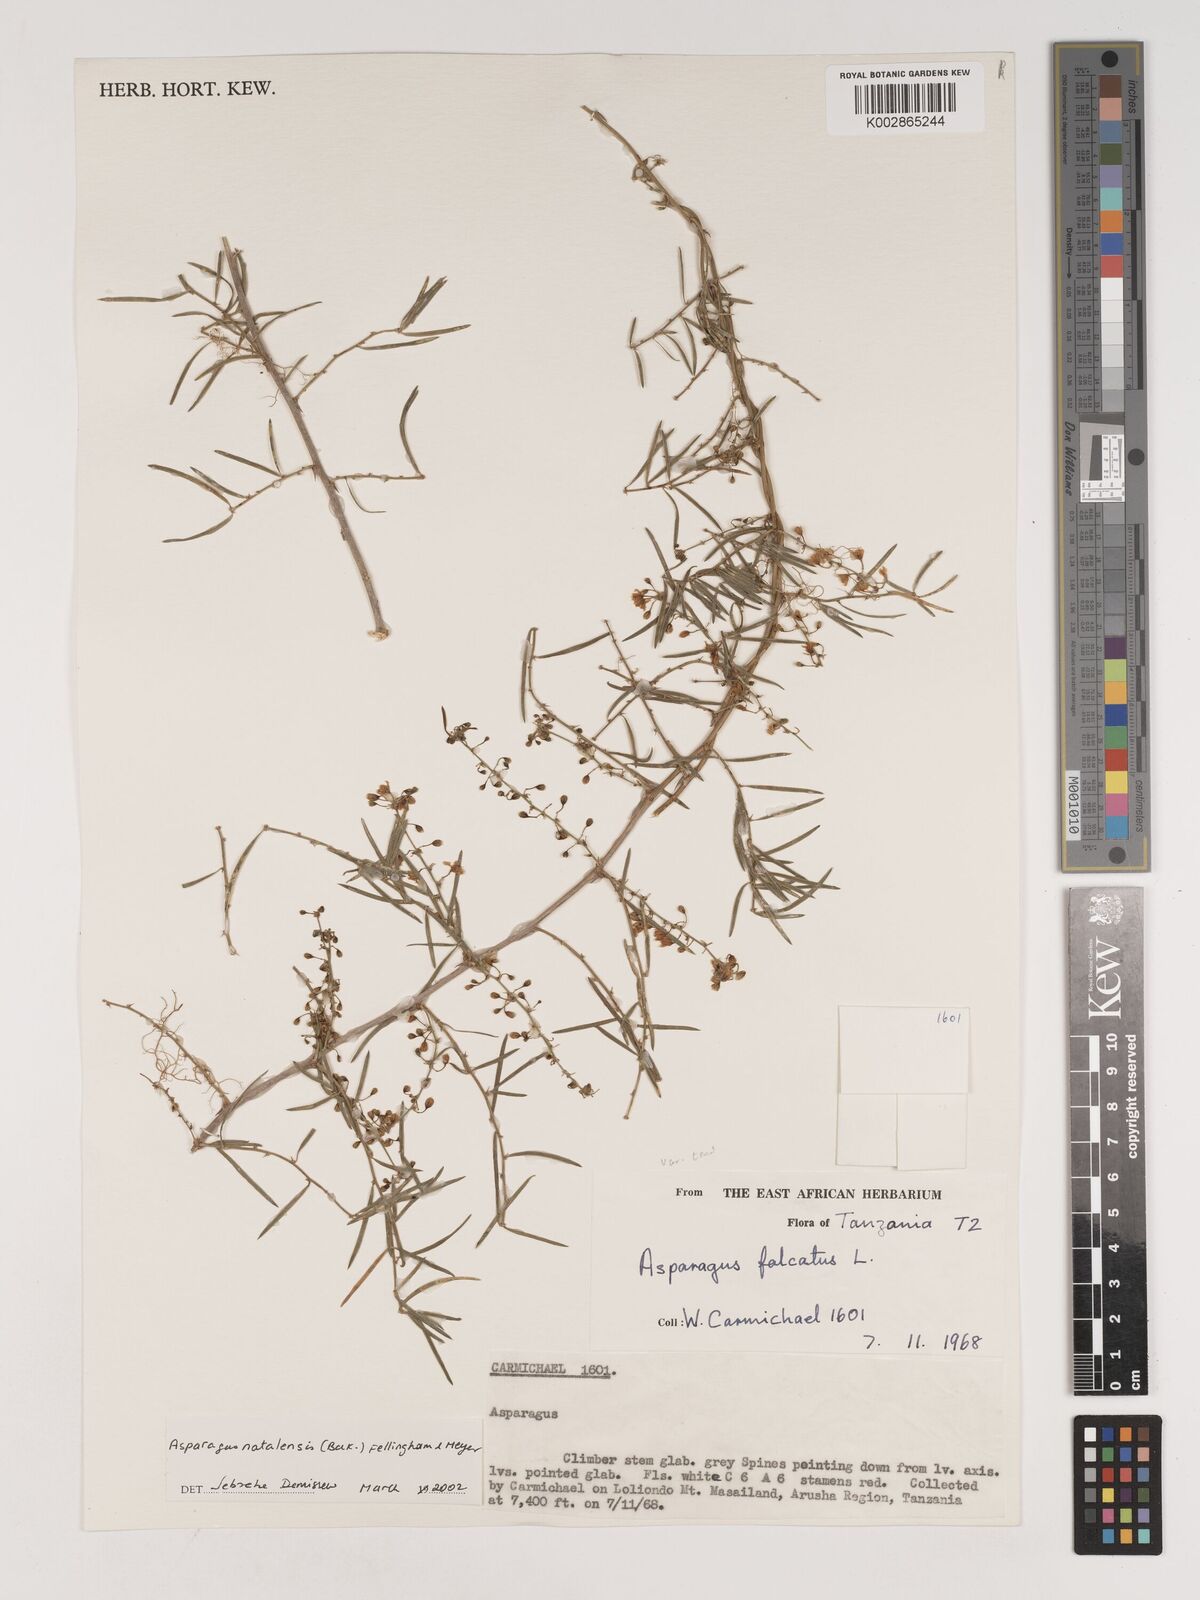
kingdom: Plantae
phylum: Tracheophyta
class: Liliopsida
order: Asparagales
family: Asparagaceae
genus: Asparagus
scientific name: Asparagus natalensis
